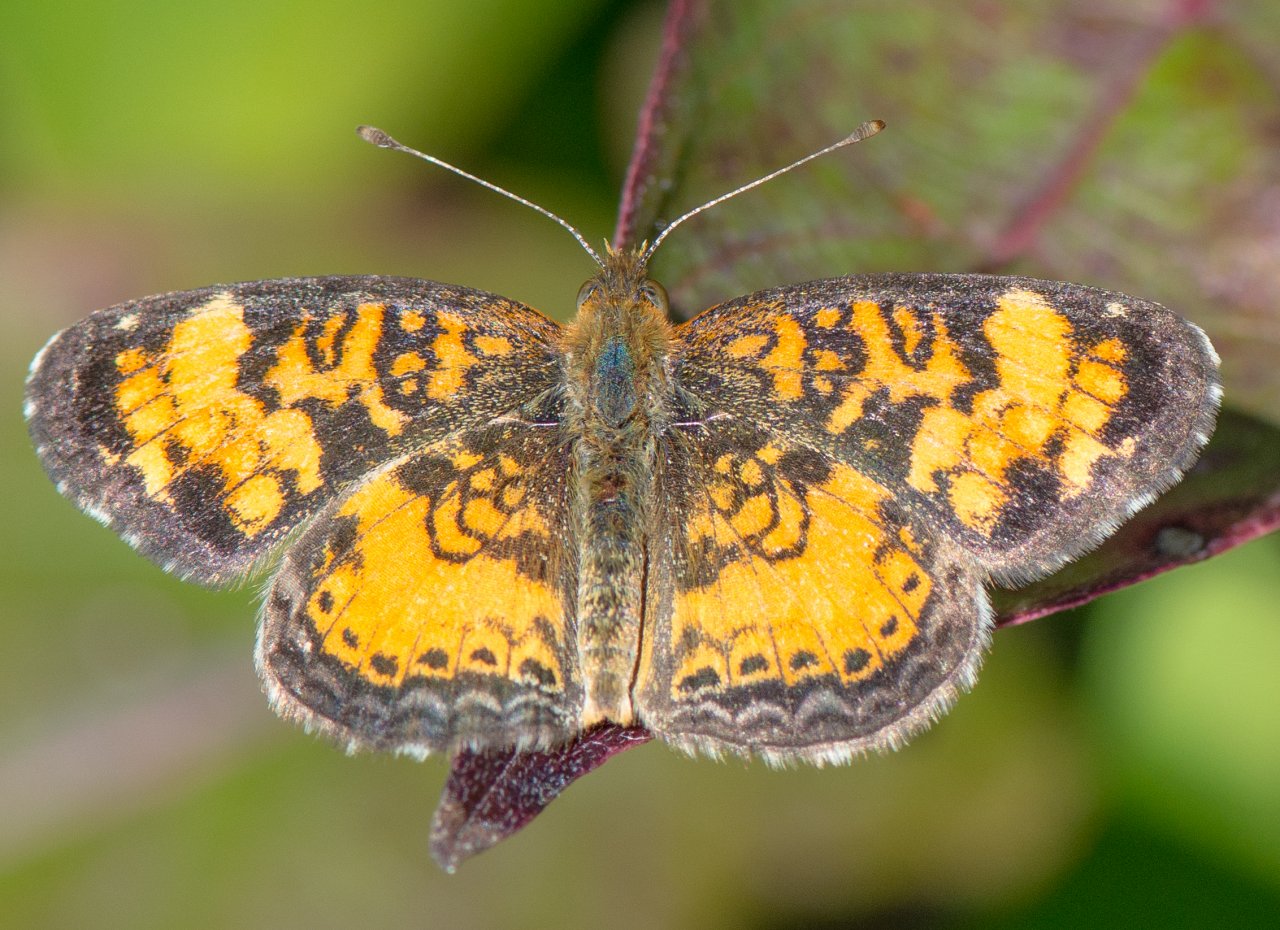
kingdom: Animalia
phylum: Arthropoda
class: Insecta
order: Lepidoptera
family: Nymphalidae
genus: Phyciodes
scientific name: Phyciodes tharos
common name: Pearl Crescent
